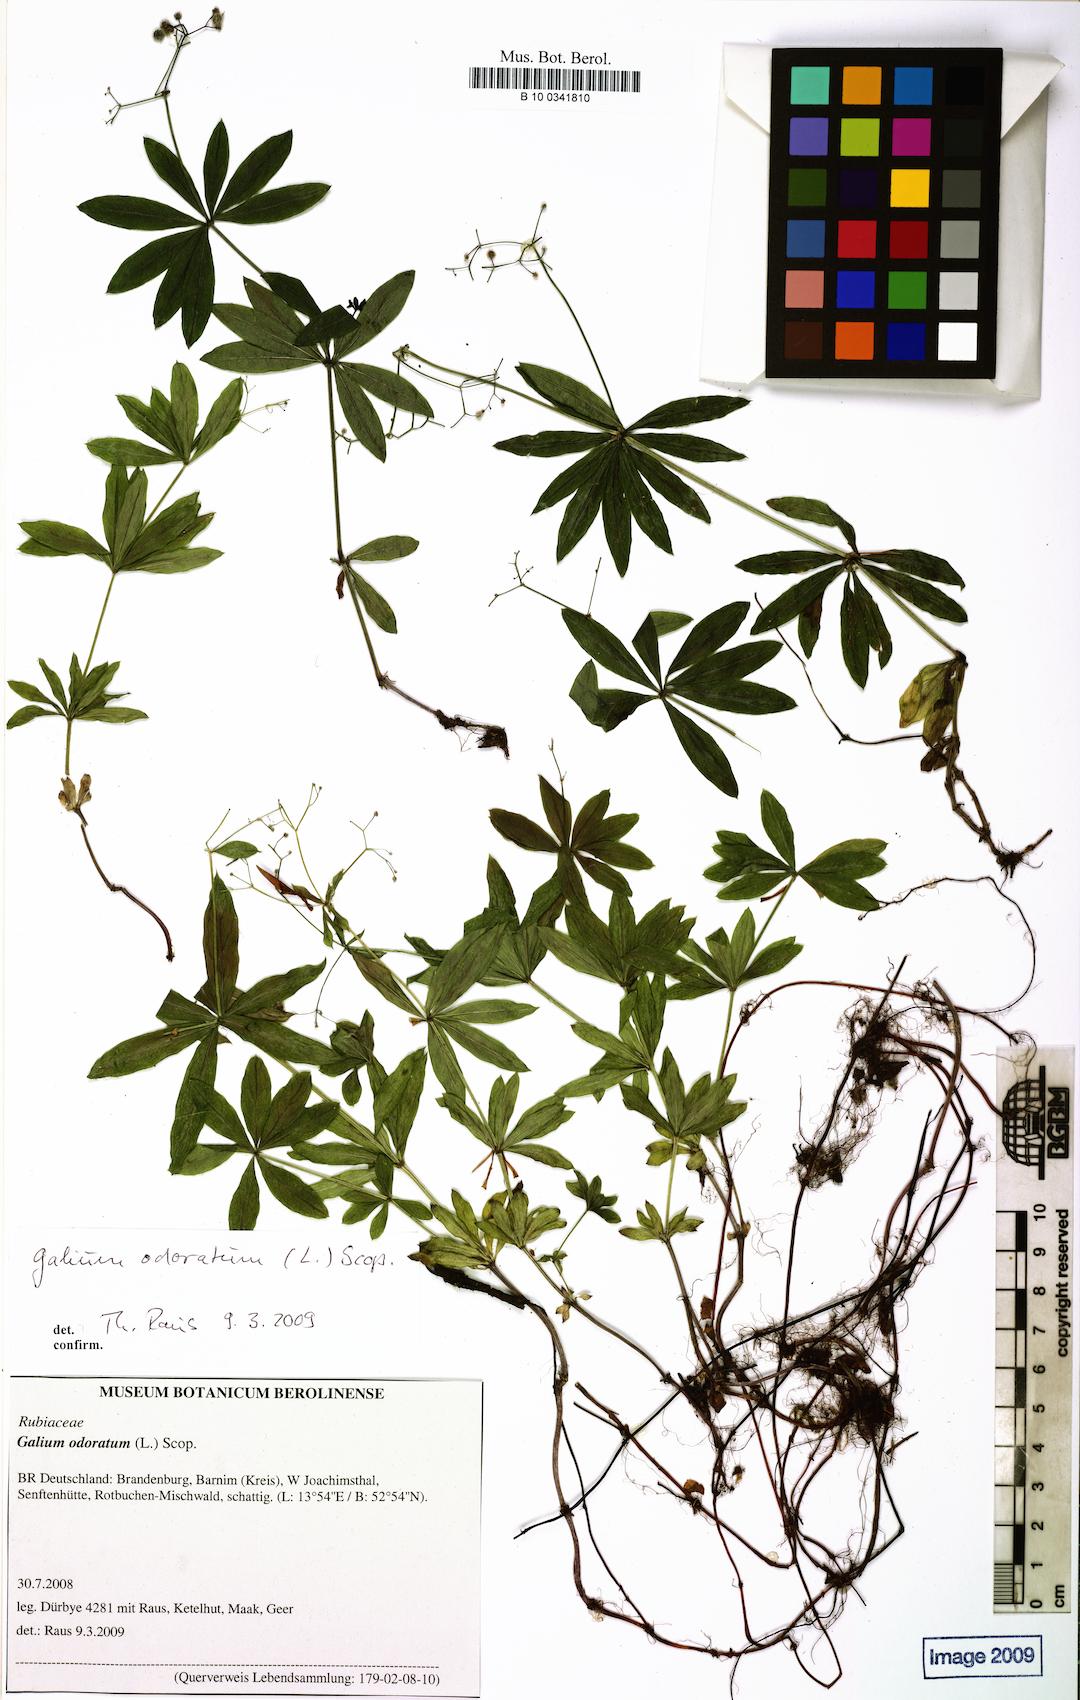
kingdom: Plantae
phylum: Tracheophyta
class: Magnoliopsida
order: Gentianales
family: Rubiaceae
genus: Galium
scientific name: Galium odoratum
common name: Sweet woodruff
